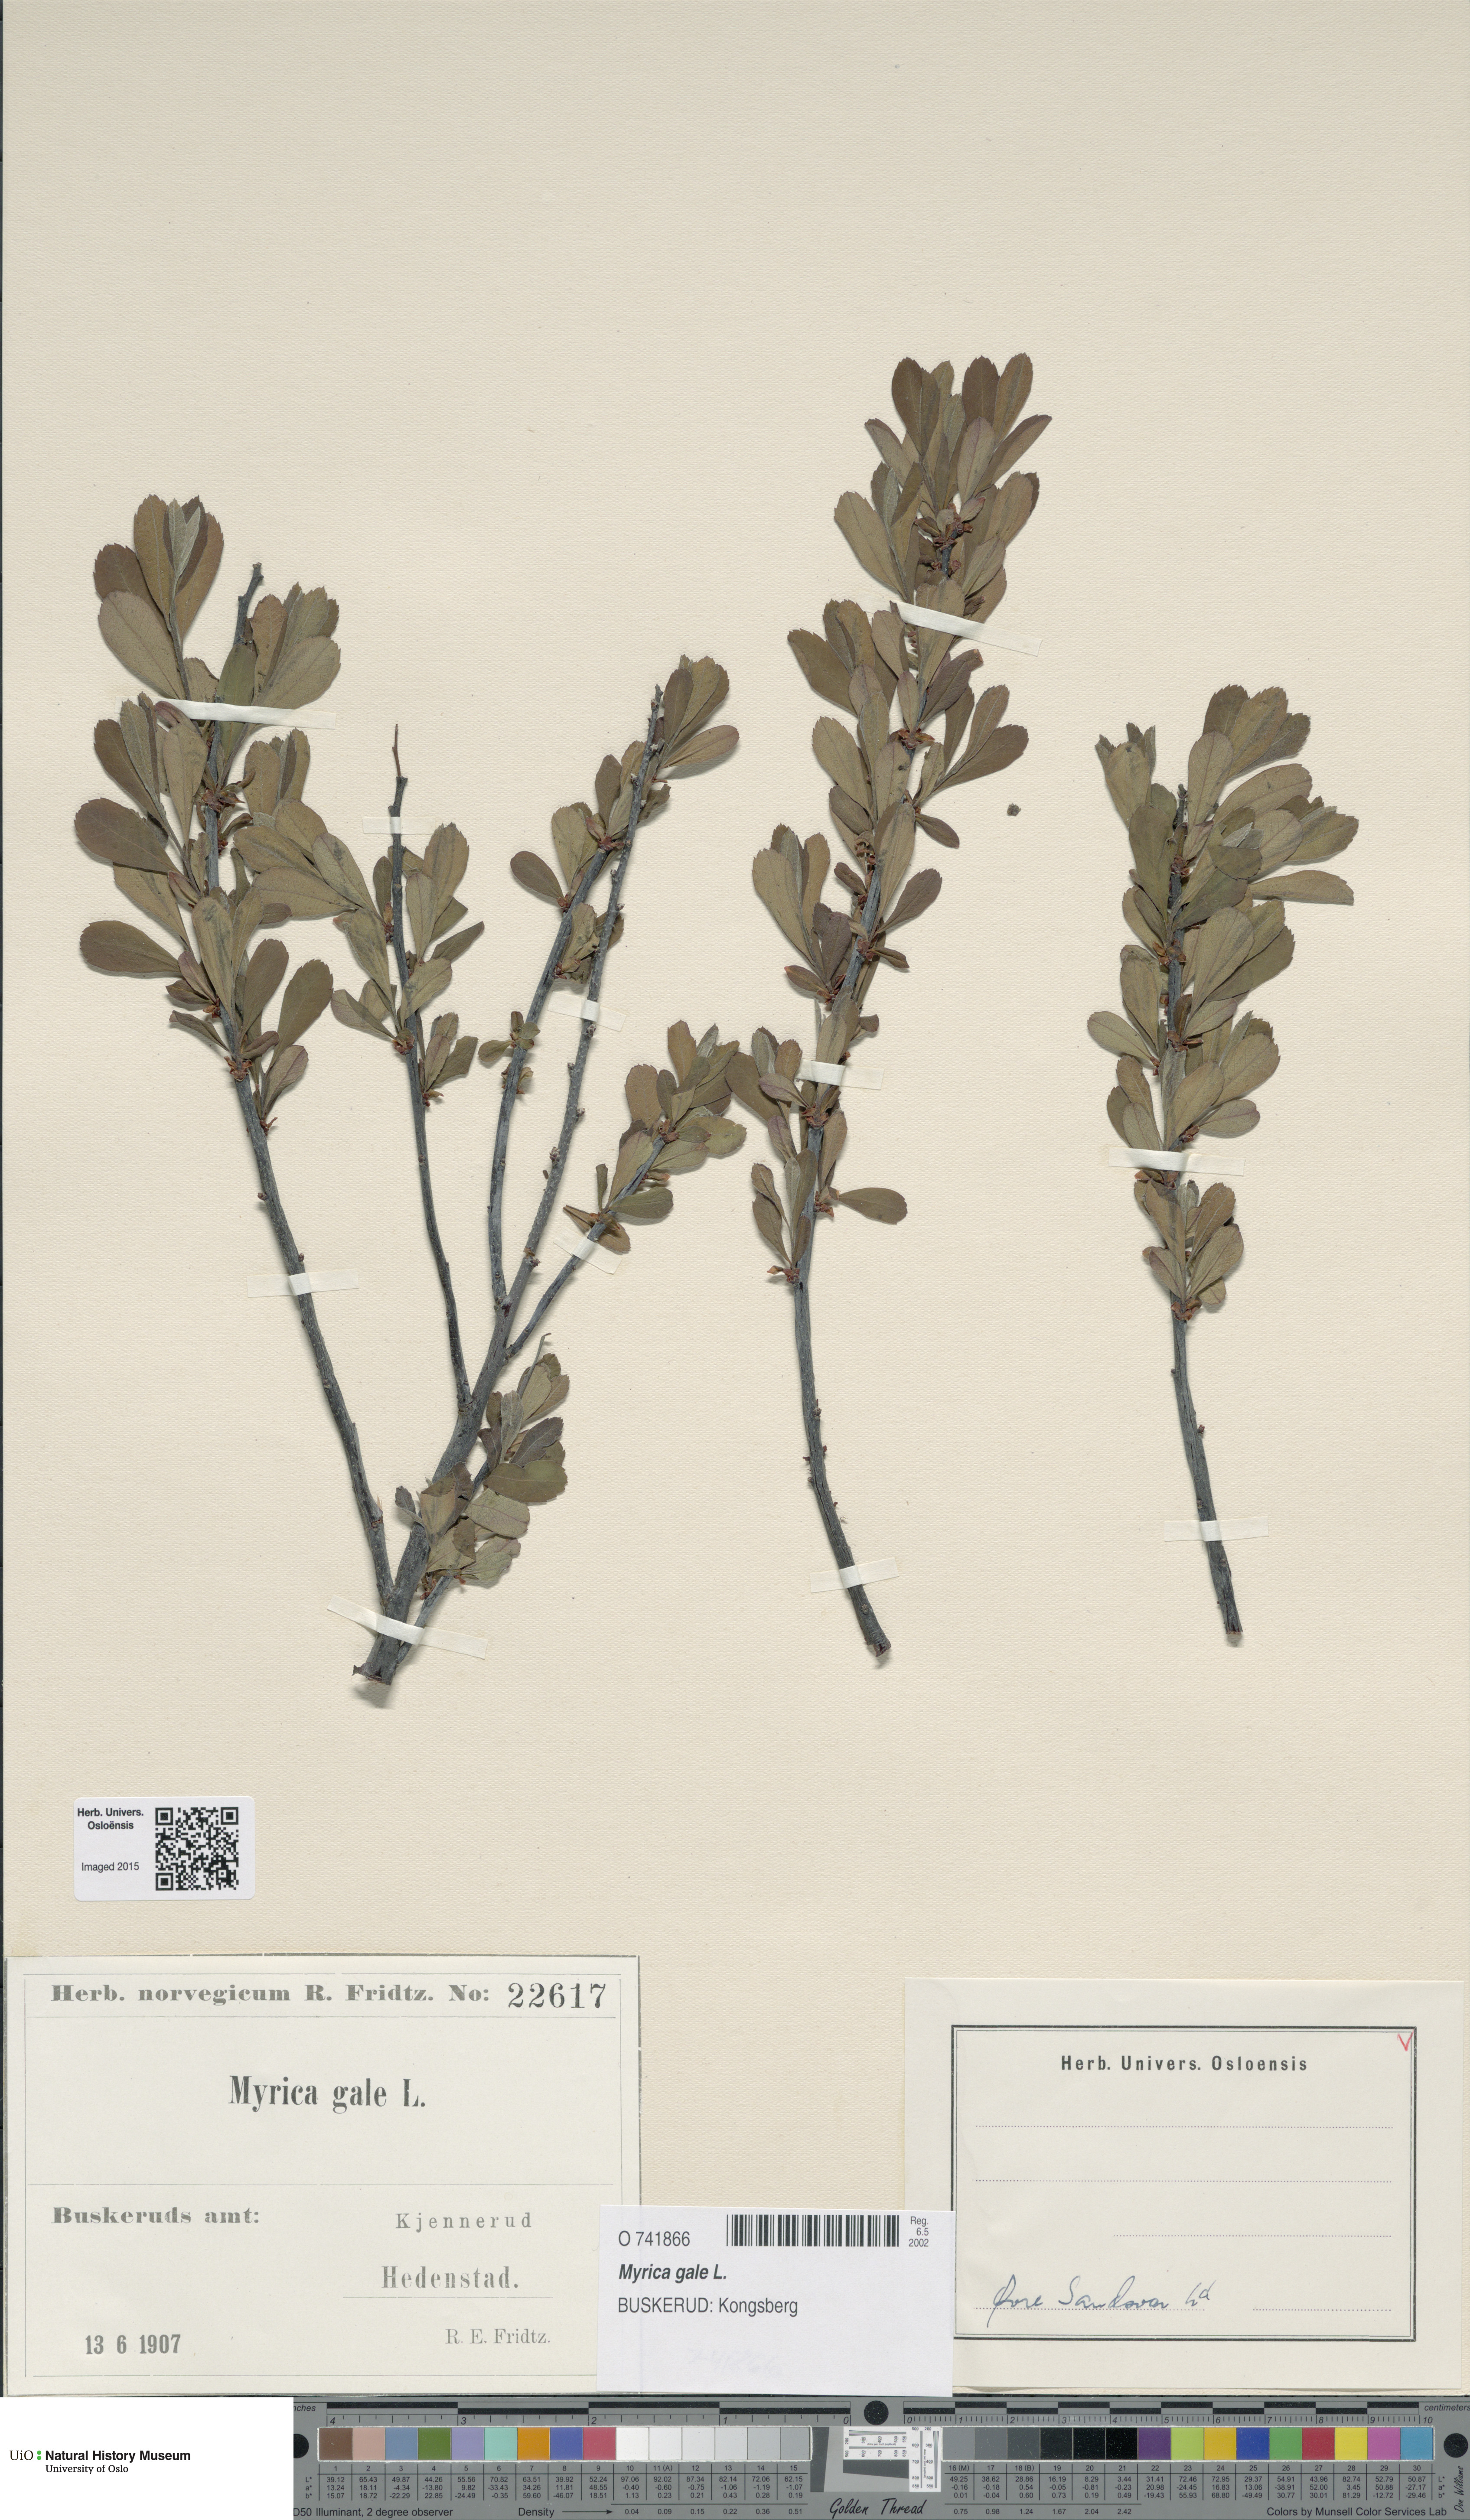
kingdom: Plantae
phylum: Tracheophyta
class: Magnoliopsida
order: Fagales
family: Myricaceae
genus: Myrica
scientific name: Myrica gale
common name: Sweet gale
